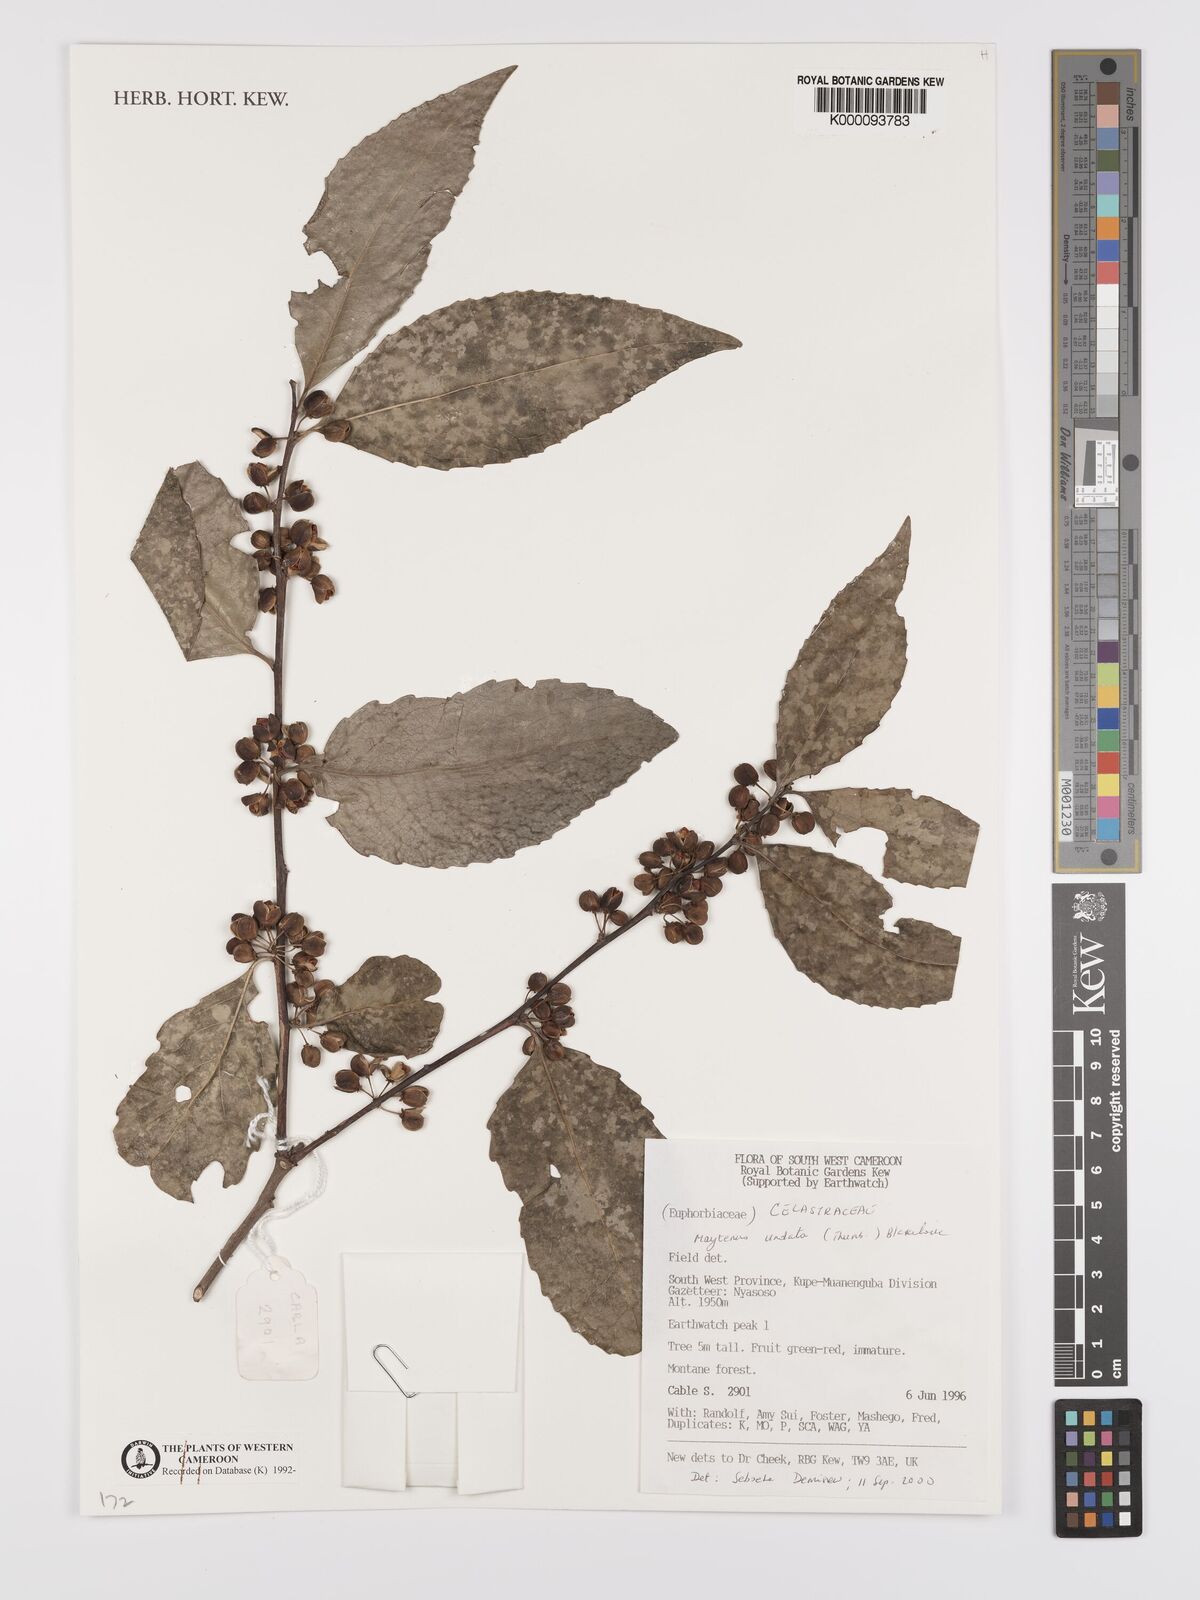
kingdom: Plantae
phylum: Tracheophyta
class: Magnoliopsida
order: Celastrales
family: Celastraceae
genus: Gymnosporia
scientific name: Gymnosporia undata
